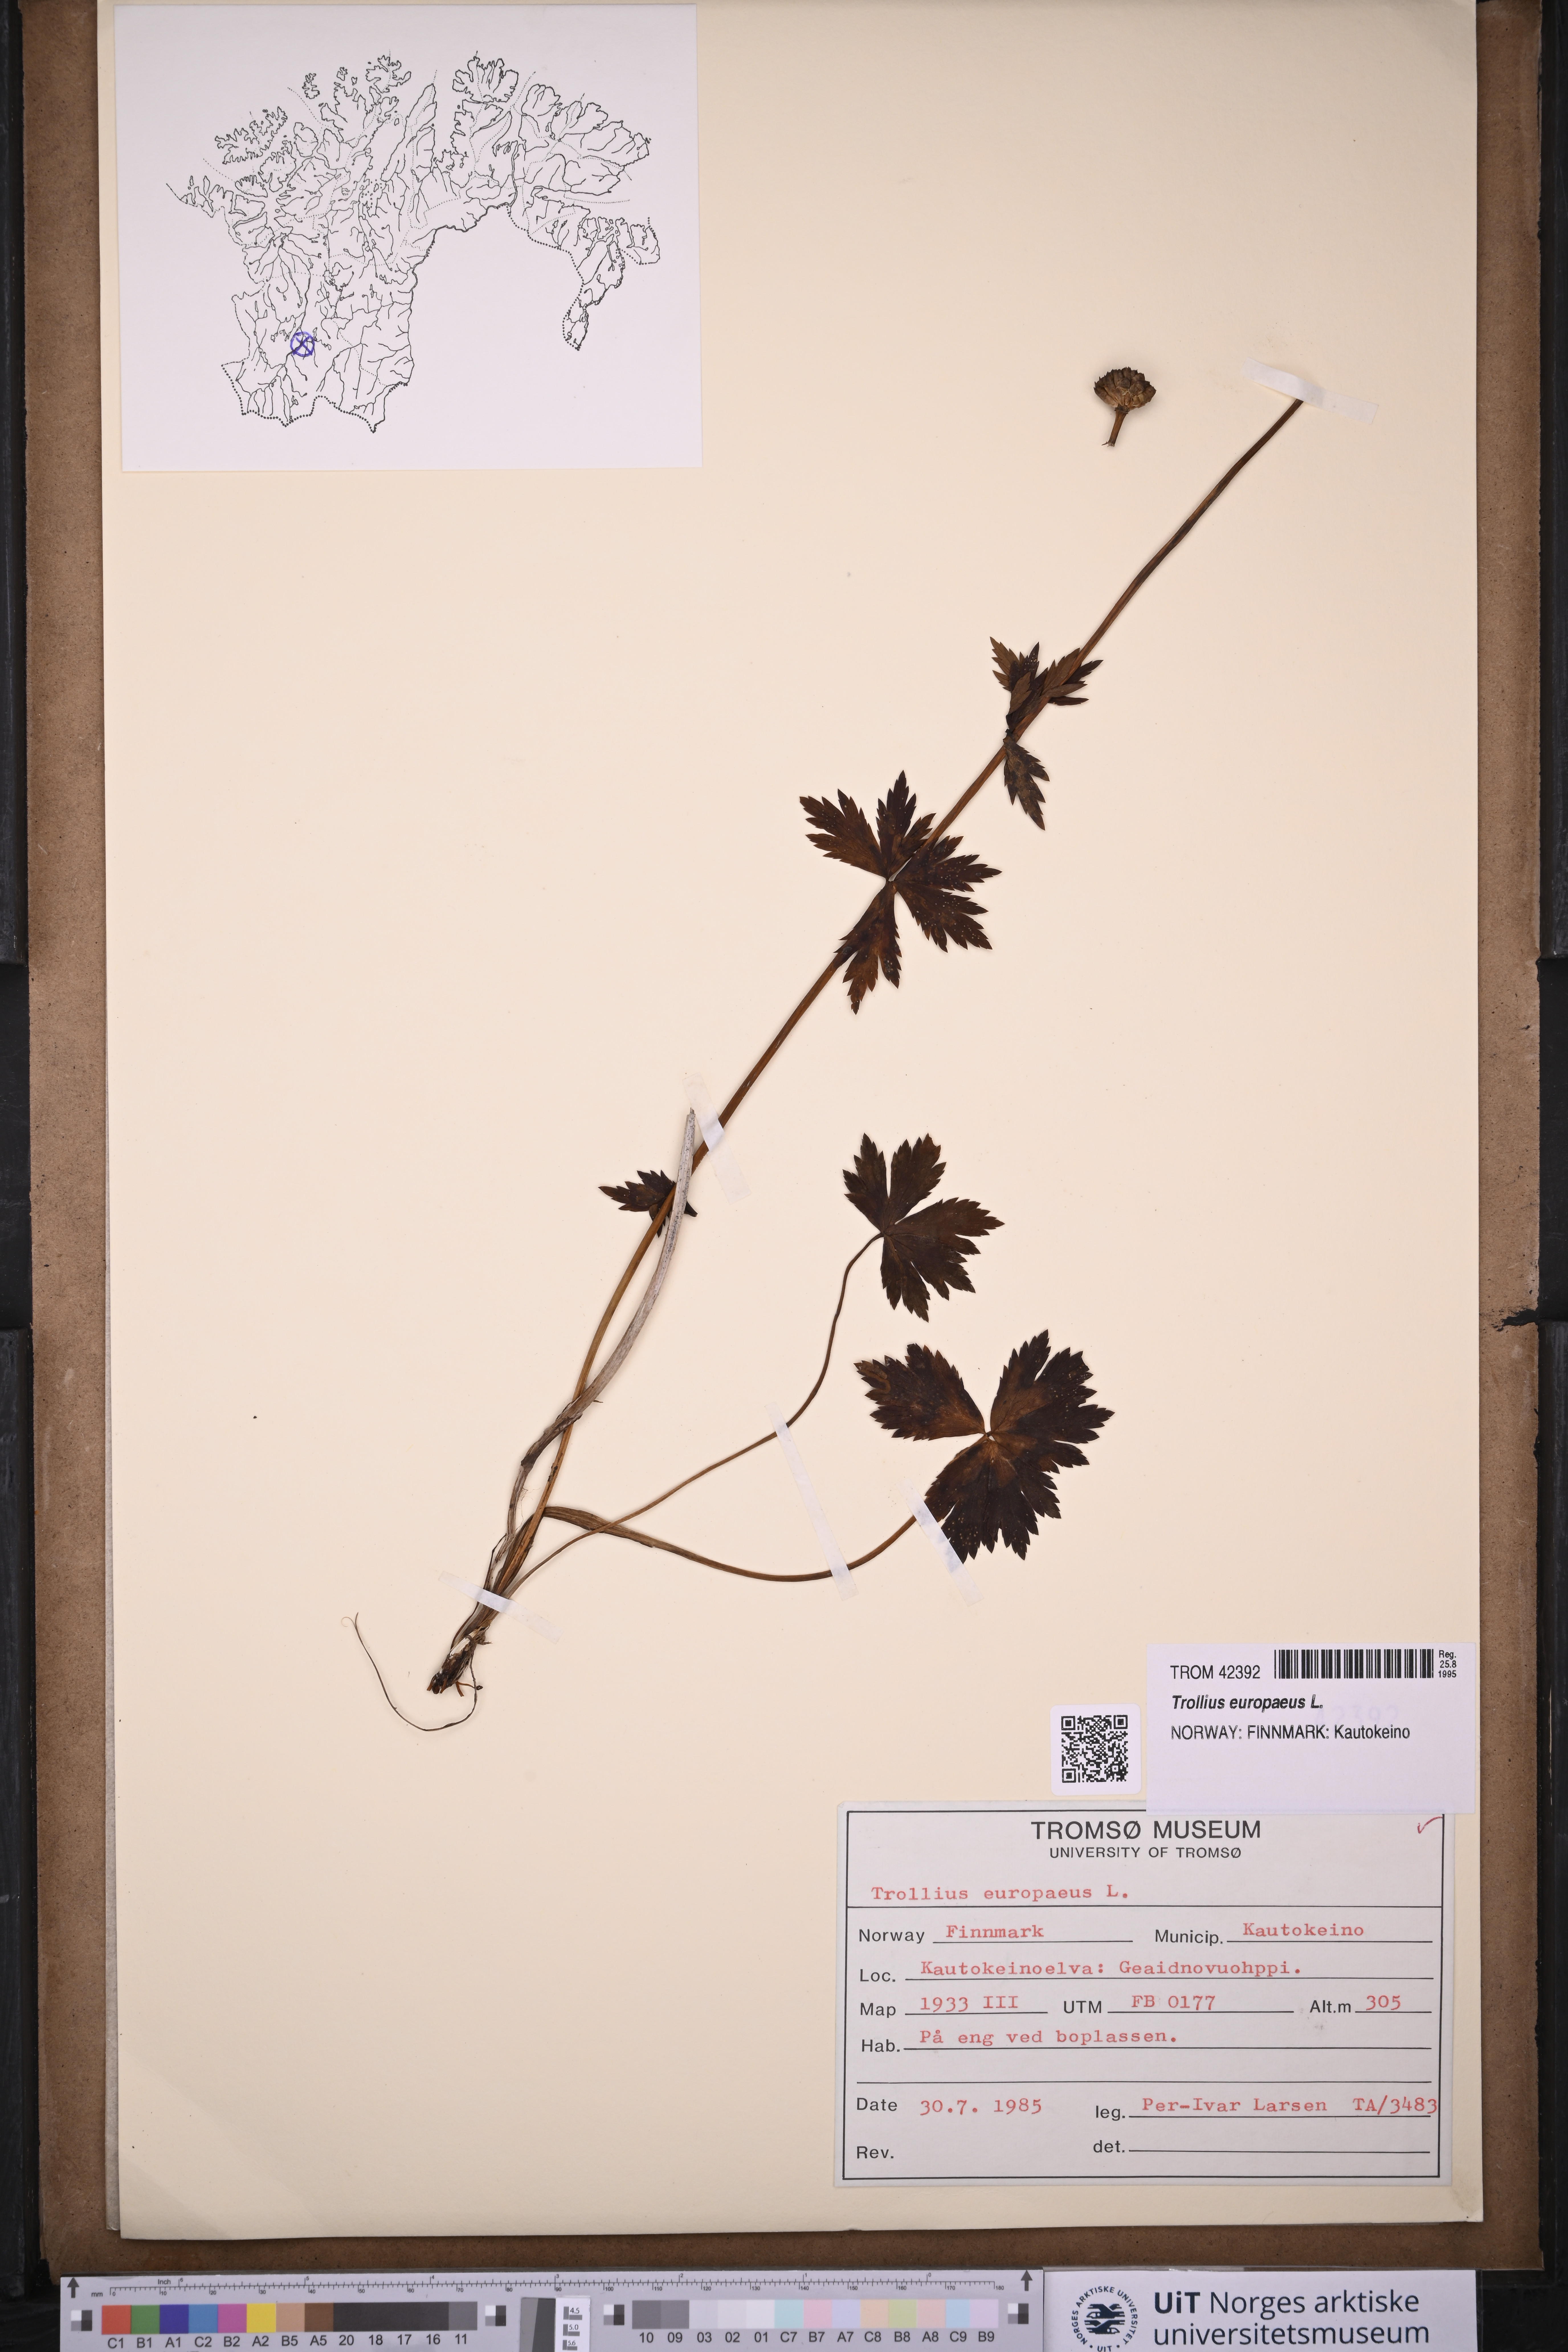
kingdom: Plantae
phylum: Tracheophyta
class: Magnoliopsida
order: Ranunculales
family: Ranunculaceae
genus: Trollius
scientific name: Trollius europaeus
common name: European globeflower
